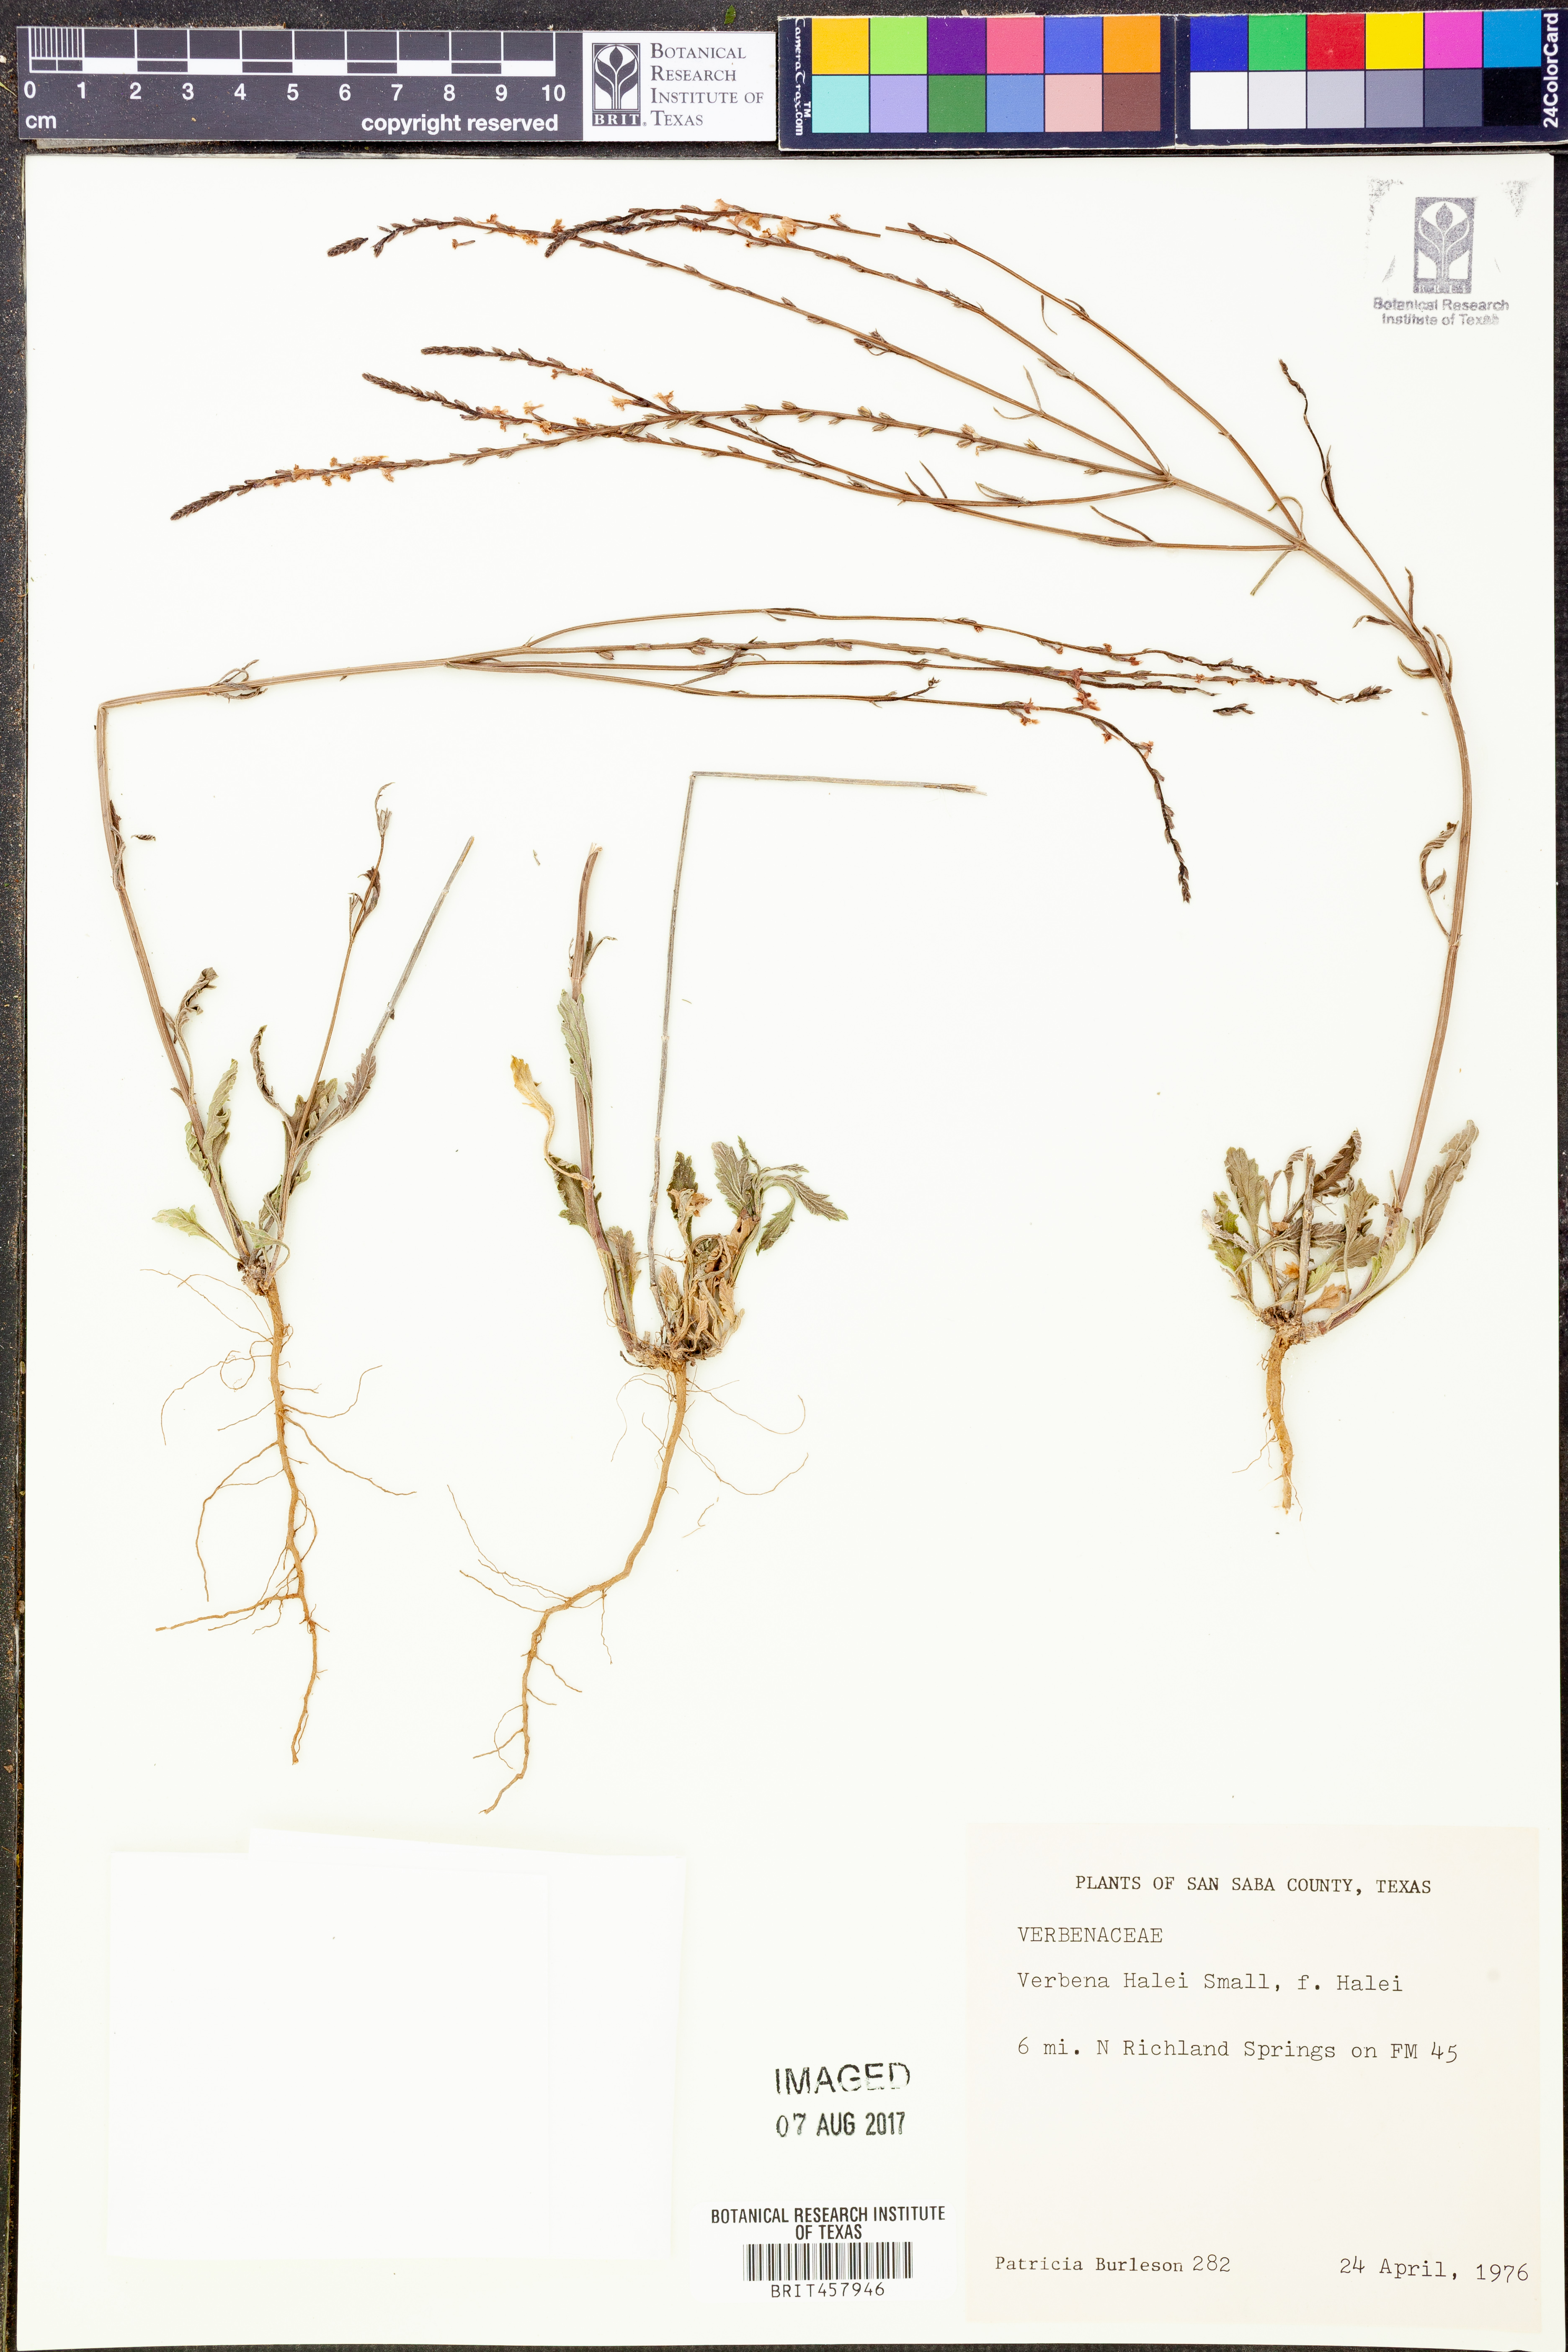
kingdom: Plantae
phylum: Tracheophyta
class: Magnoliopsida
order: Lamiales
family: Verbenaceae
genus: Verbena
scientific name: Verbena halei
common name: Texas vervain
